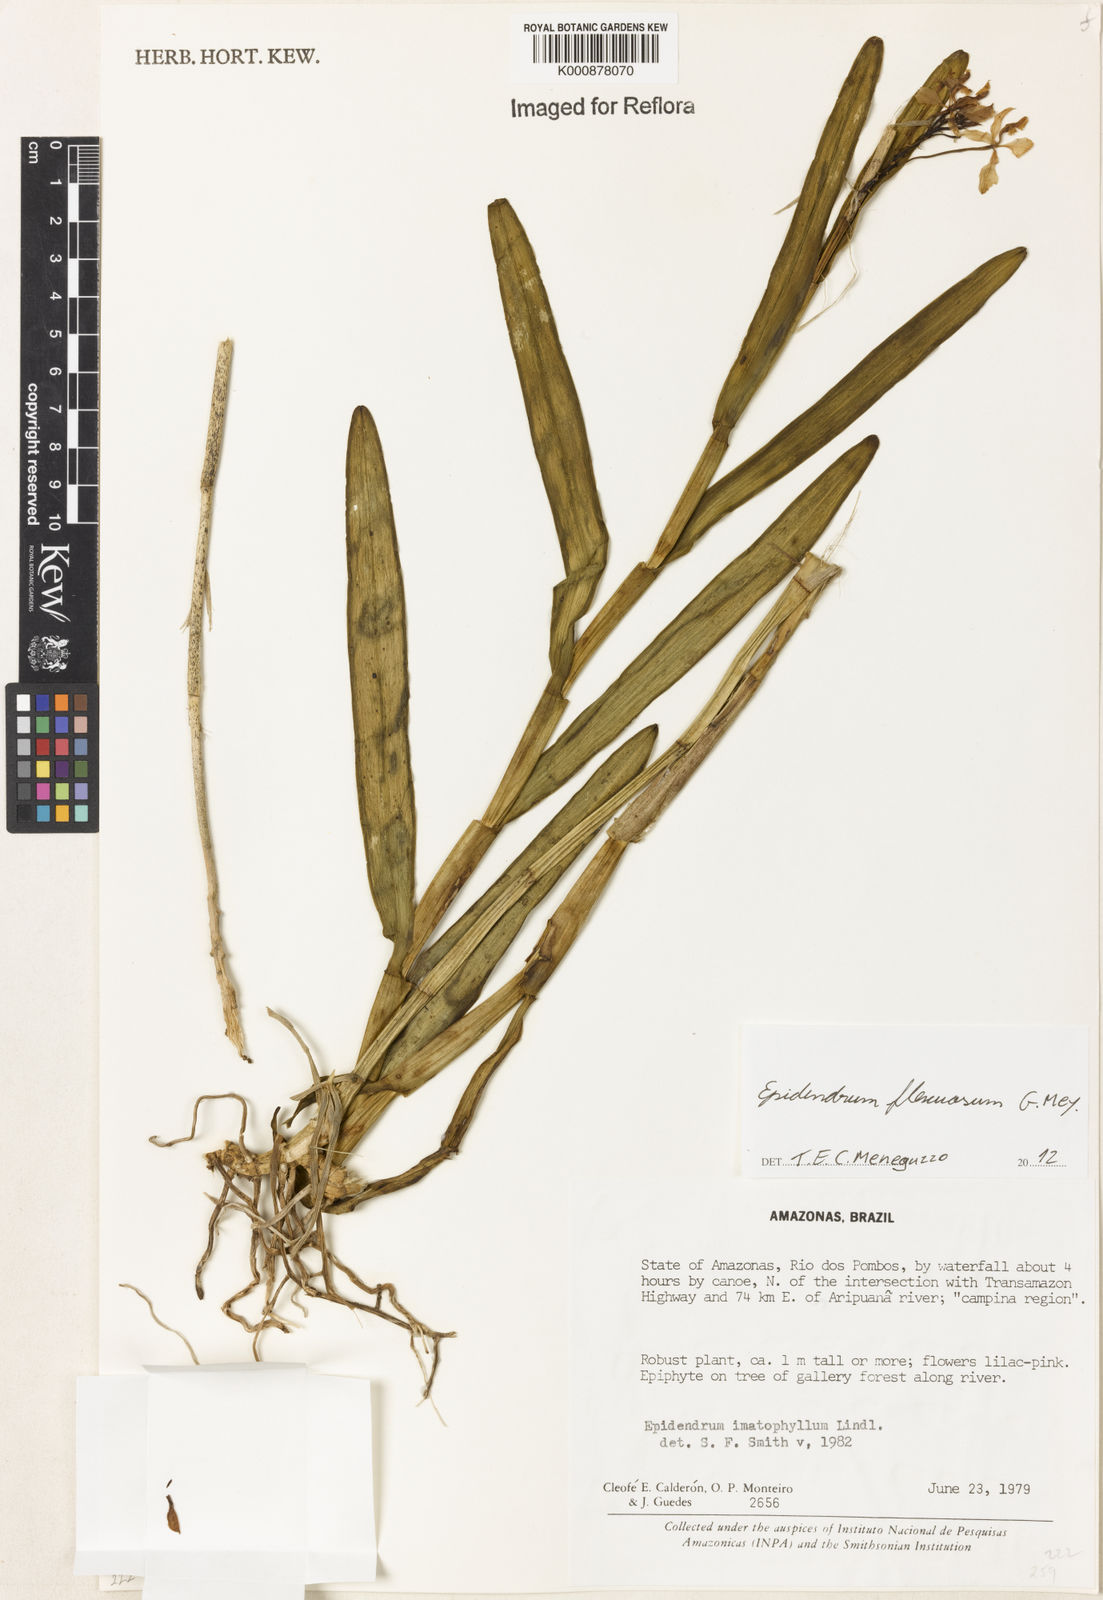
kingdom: Plantae
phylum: Tracheophyta
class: Liliopsida
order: Asparagales
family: Orchidaceae
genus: Epidendrum
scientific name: Epidendrum flexuosum
